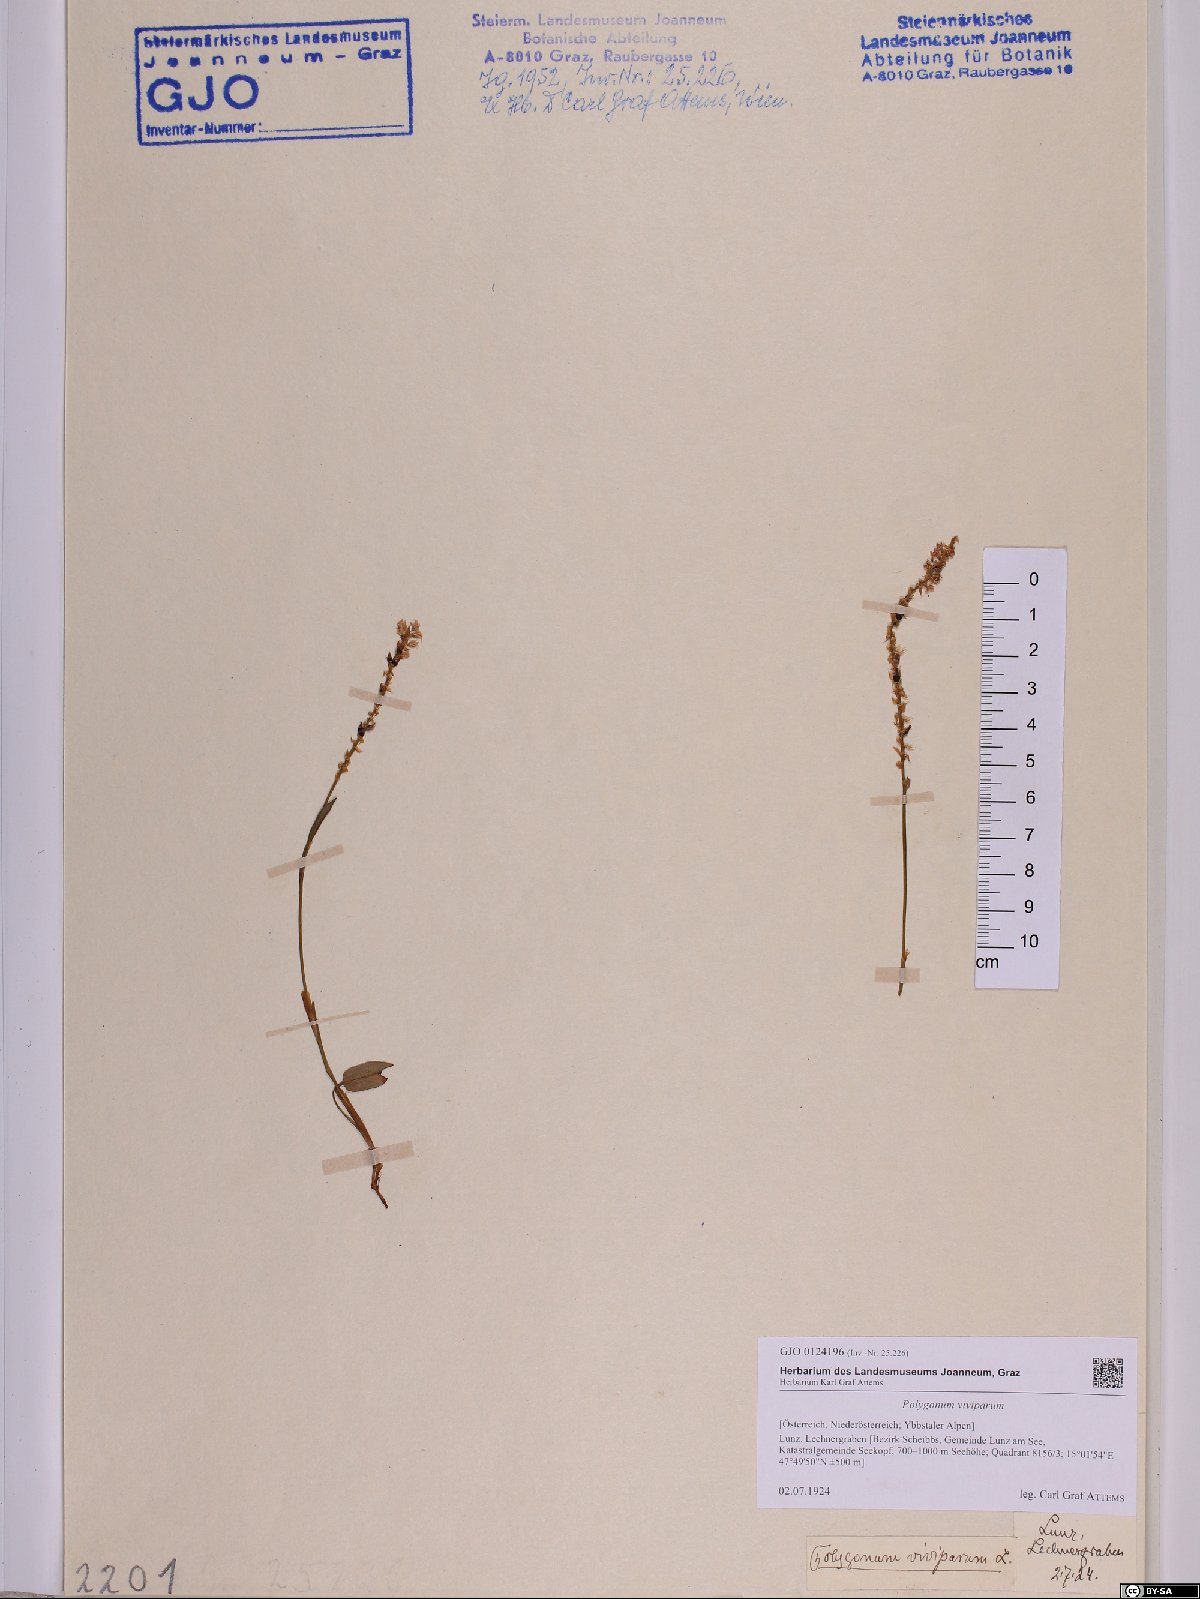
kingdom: Plantae
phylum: Tracheophyta
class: Magnoliopsida
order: Caryophyllales
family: Polygonaceae
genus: Bistorta
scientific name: Bistorta vivipara
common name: Alpine bistort
